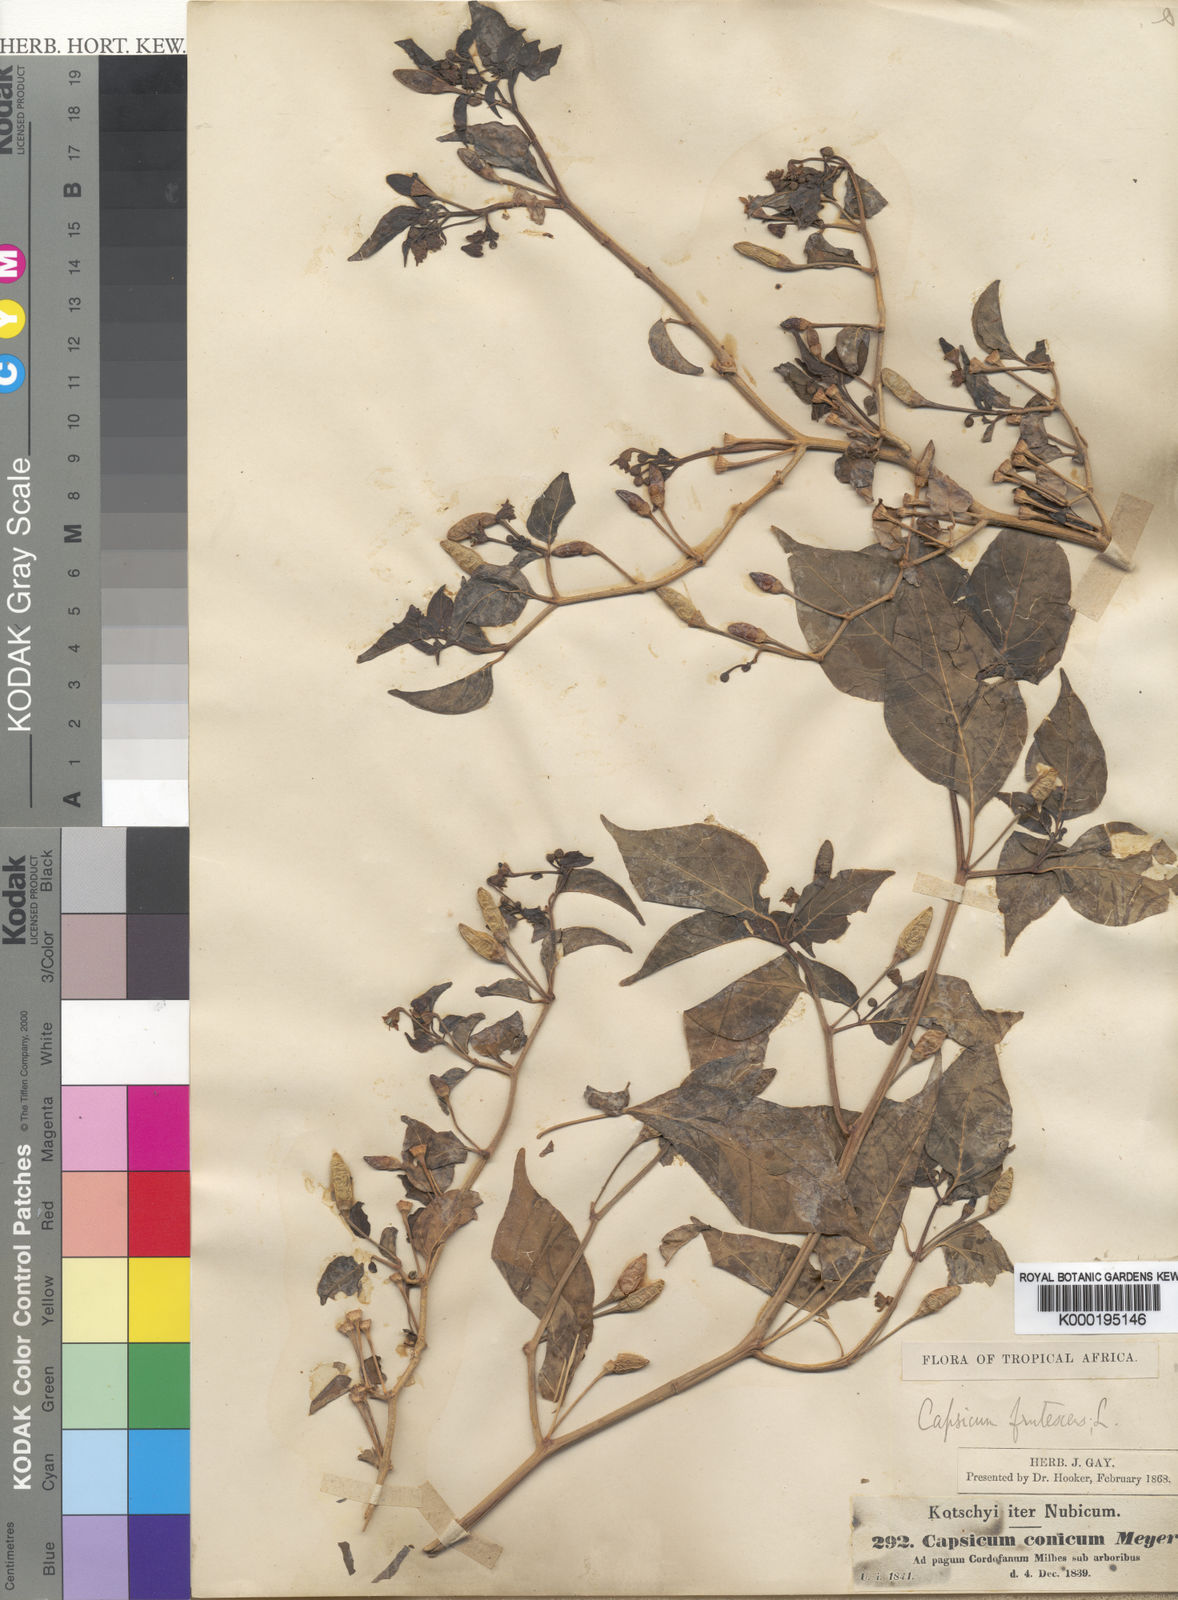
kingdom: Plantae
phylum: Tracheophyta
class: Magnoliopsida
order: Solanales
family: Solanaceae
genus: Capsicum
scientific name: Capsicum frutescens
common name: Bird pepper
